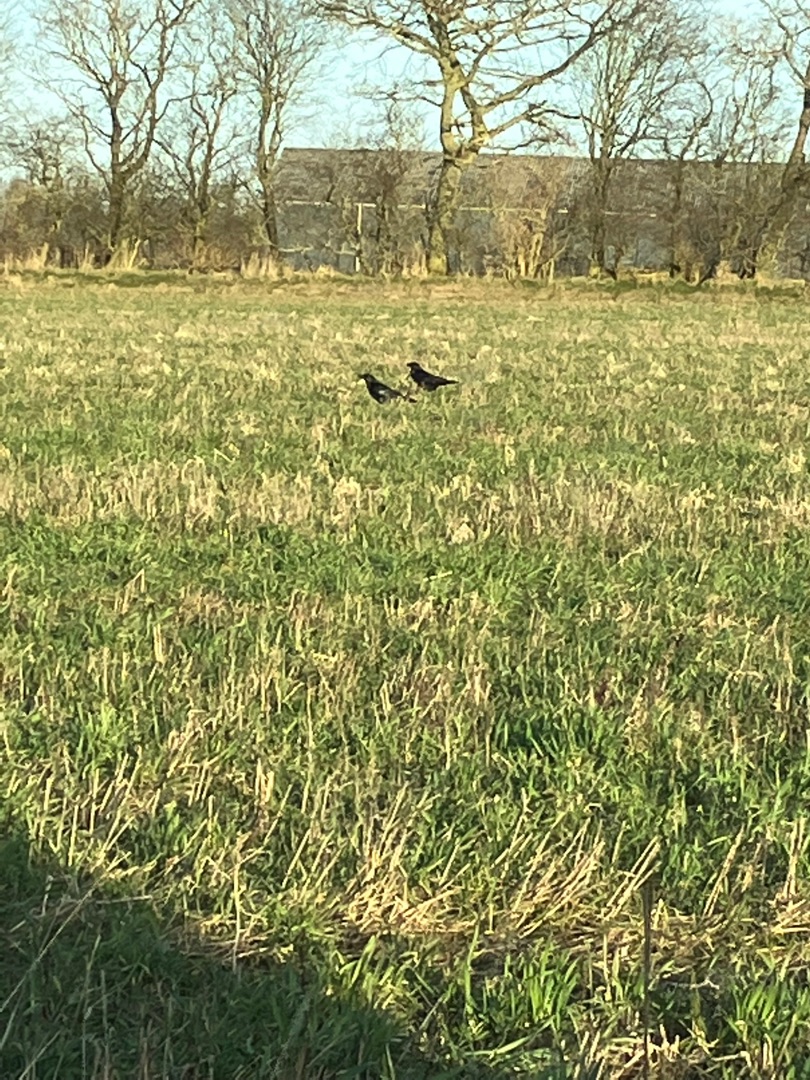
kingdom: Animalia
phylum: Chordata
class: Aves
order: Passeriformes
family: Corvidae
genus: Corvus
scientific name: Corvus corax
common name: Ravn
